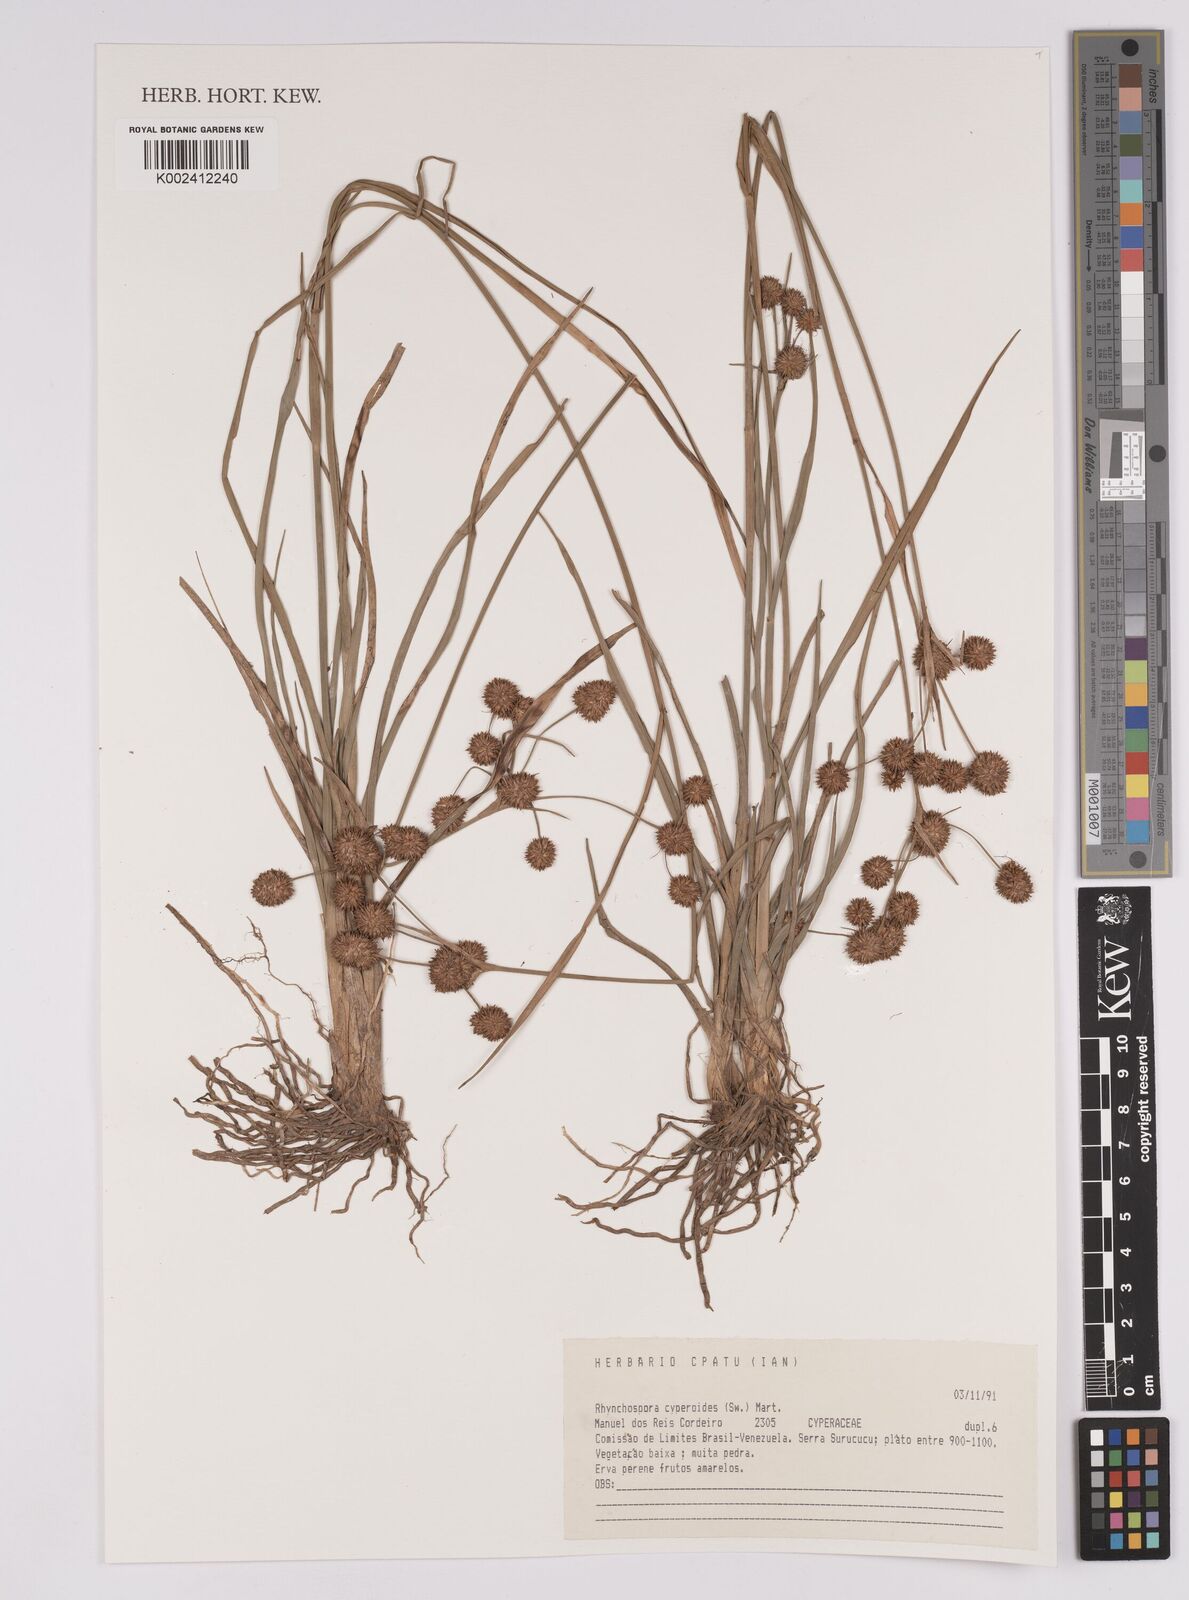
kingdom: Plantae
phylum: Tracheophyta
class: Liliopsida
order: Poales
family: Cyperaceae
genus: Rhynchospora
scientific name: Rhynchospora holoschoenoides
